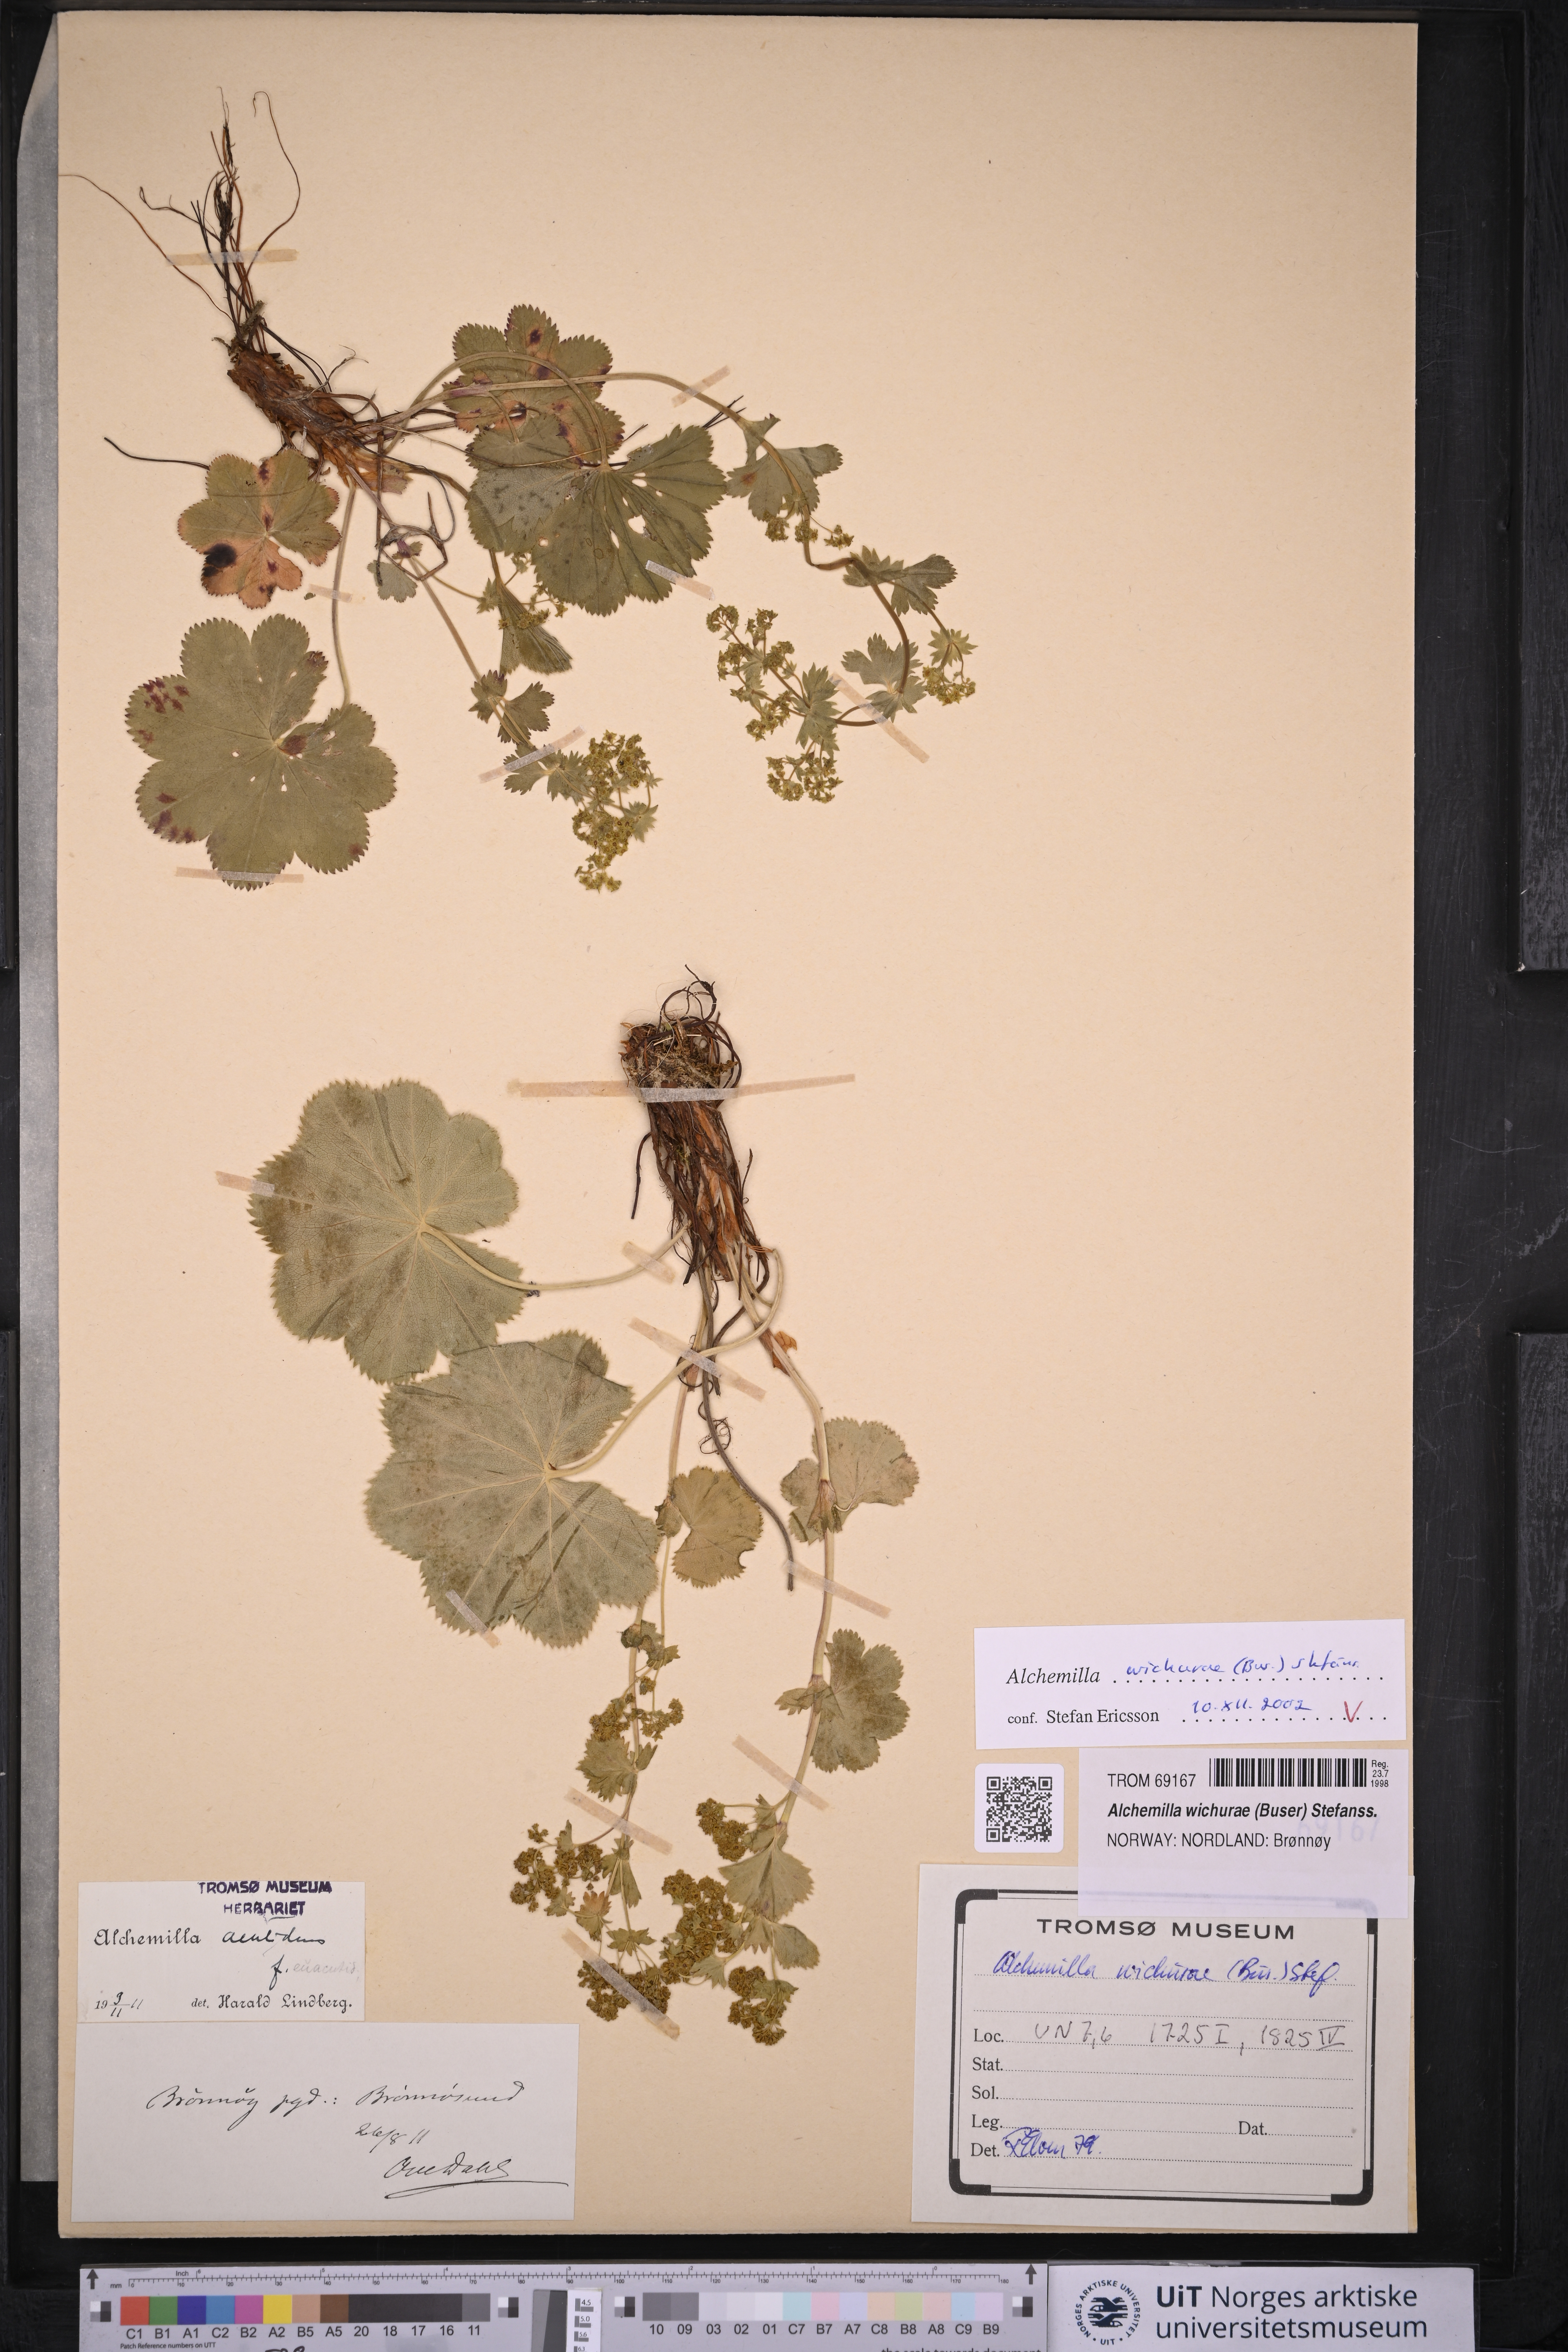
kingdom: Plantae
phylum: Tracheophyta
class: Magnoliopsida
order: Rosales
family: Rosaceae
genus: Alchemilla
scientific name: Alchemilla wichurae
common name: Rock lady's mantle
